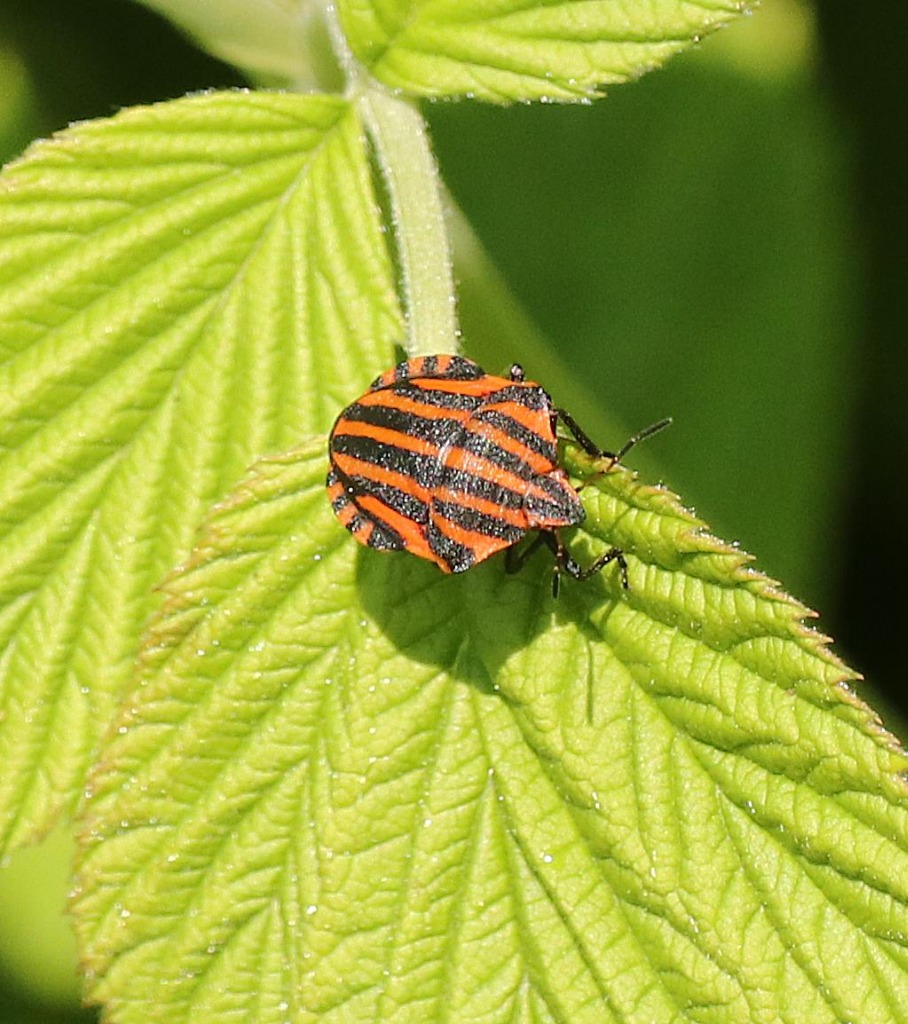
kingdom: Animalia
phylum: Arthropoda
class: Insecta
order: Hemiptera
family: Pentatomidae
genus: Graphosoma
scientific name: Graphosoma italicum
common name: Stribetæge
